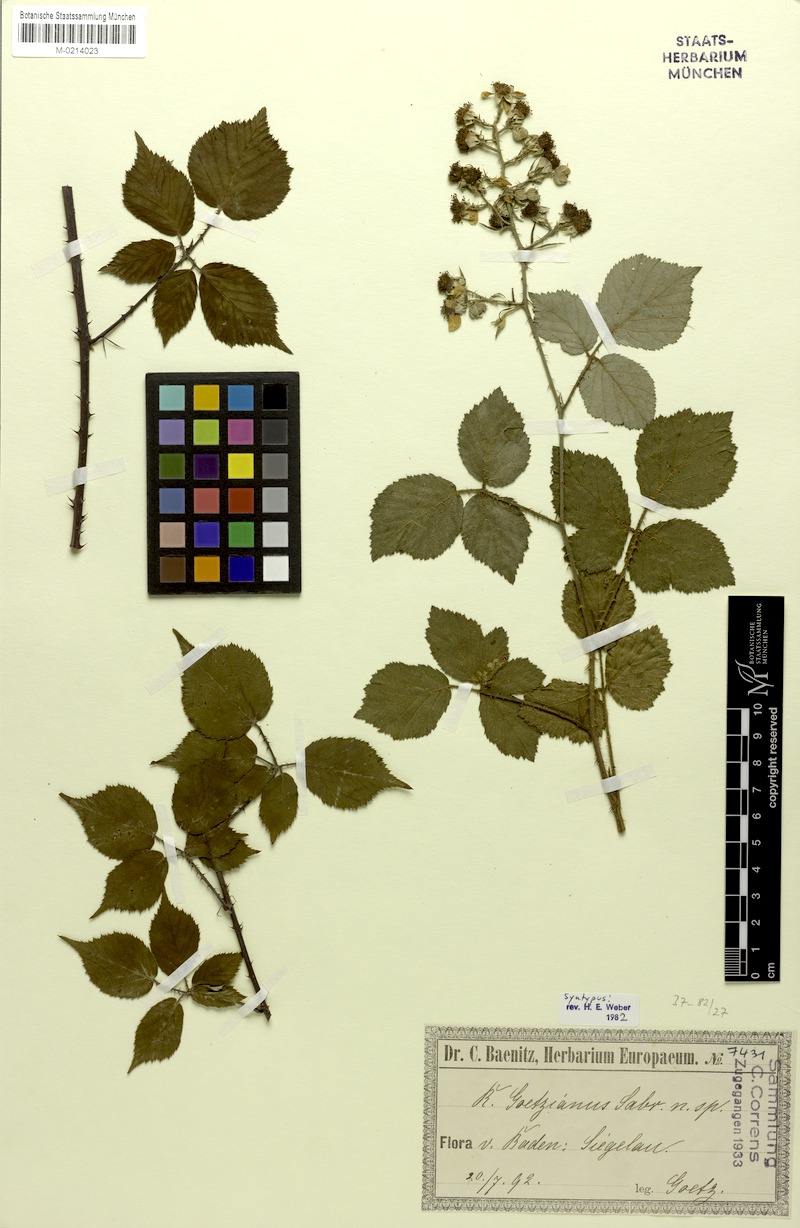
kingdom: Plantae
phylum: Tracheophyta
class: Magnoliopsida
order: Rosales
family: Rosaceae
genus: Rubus
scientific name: Rubus goetzianus
